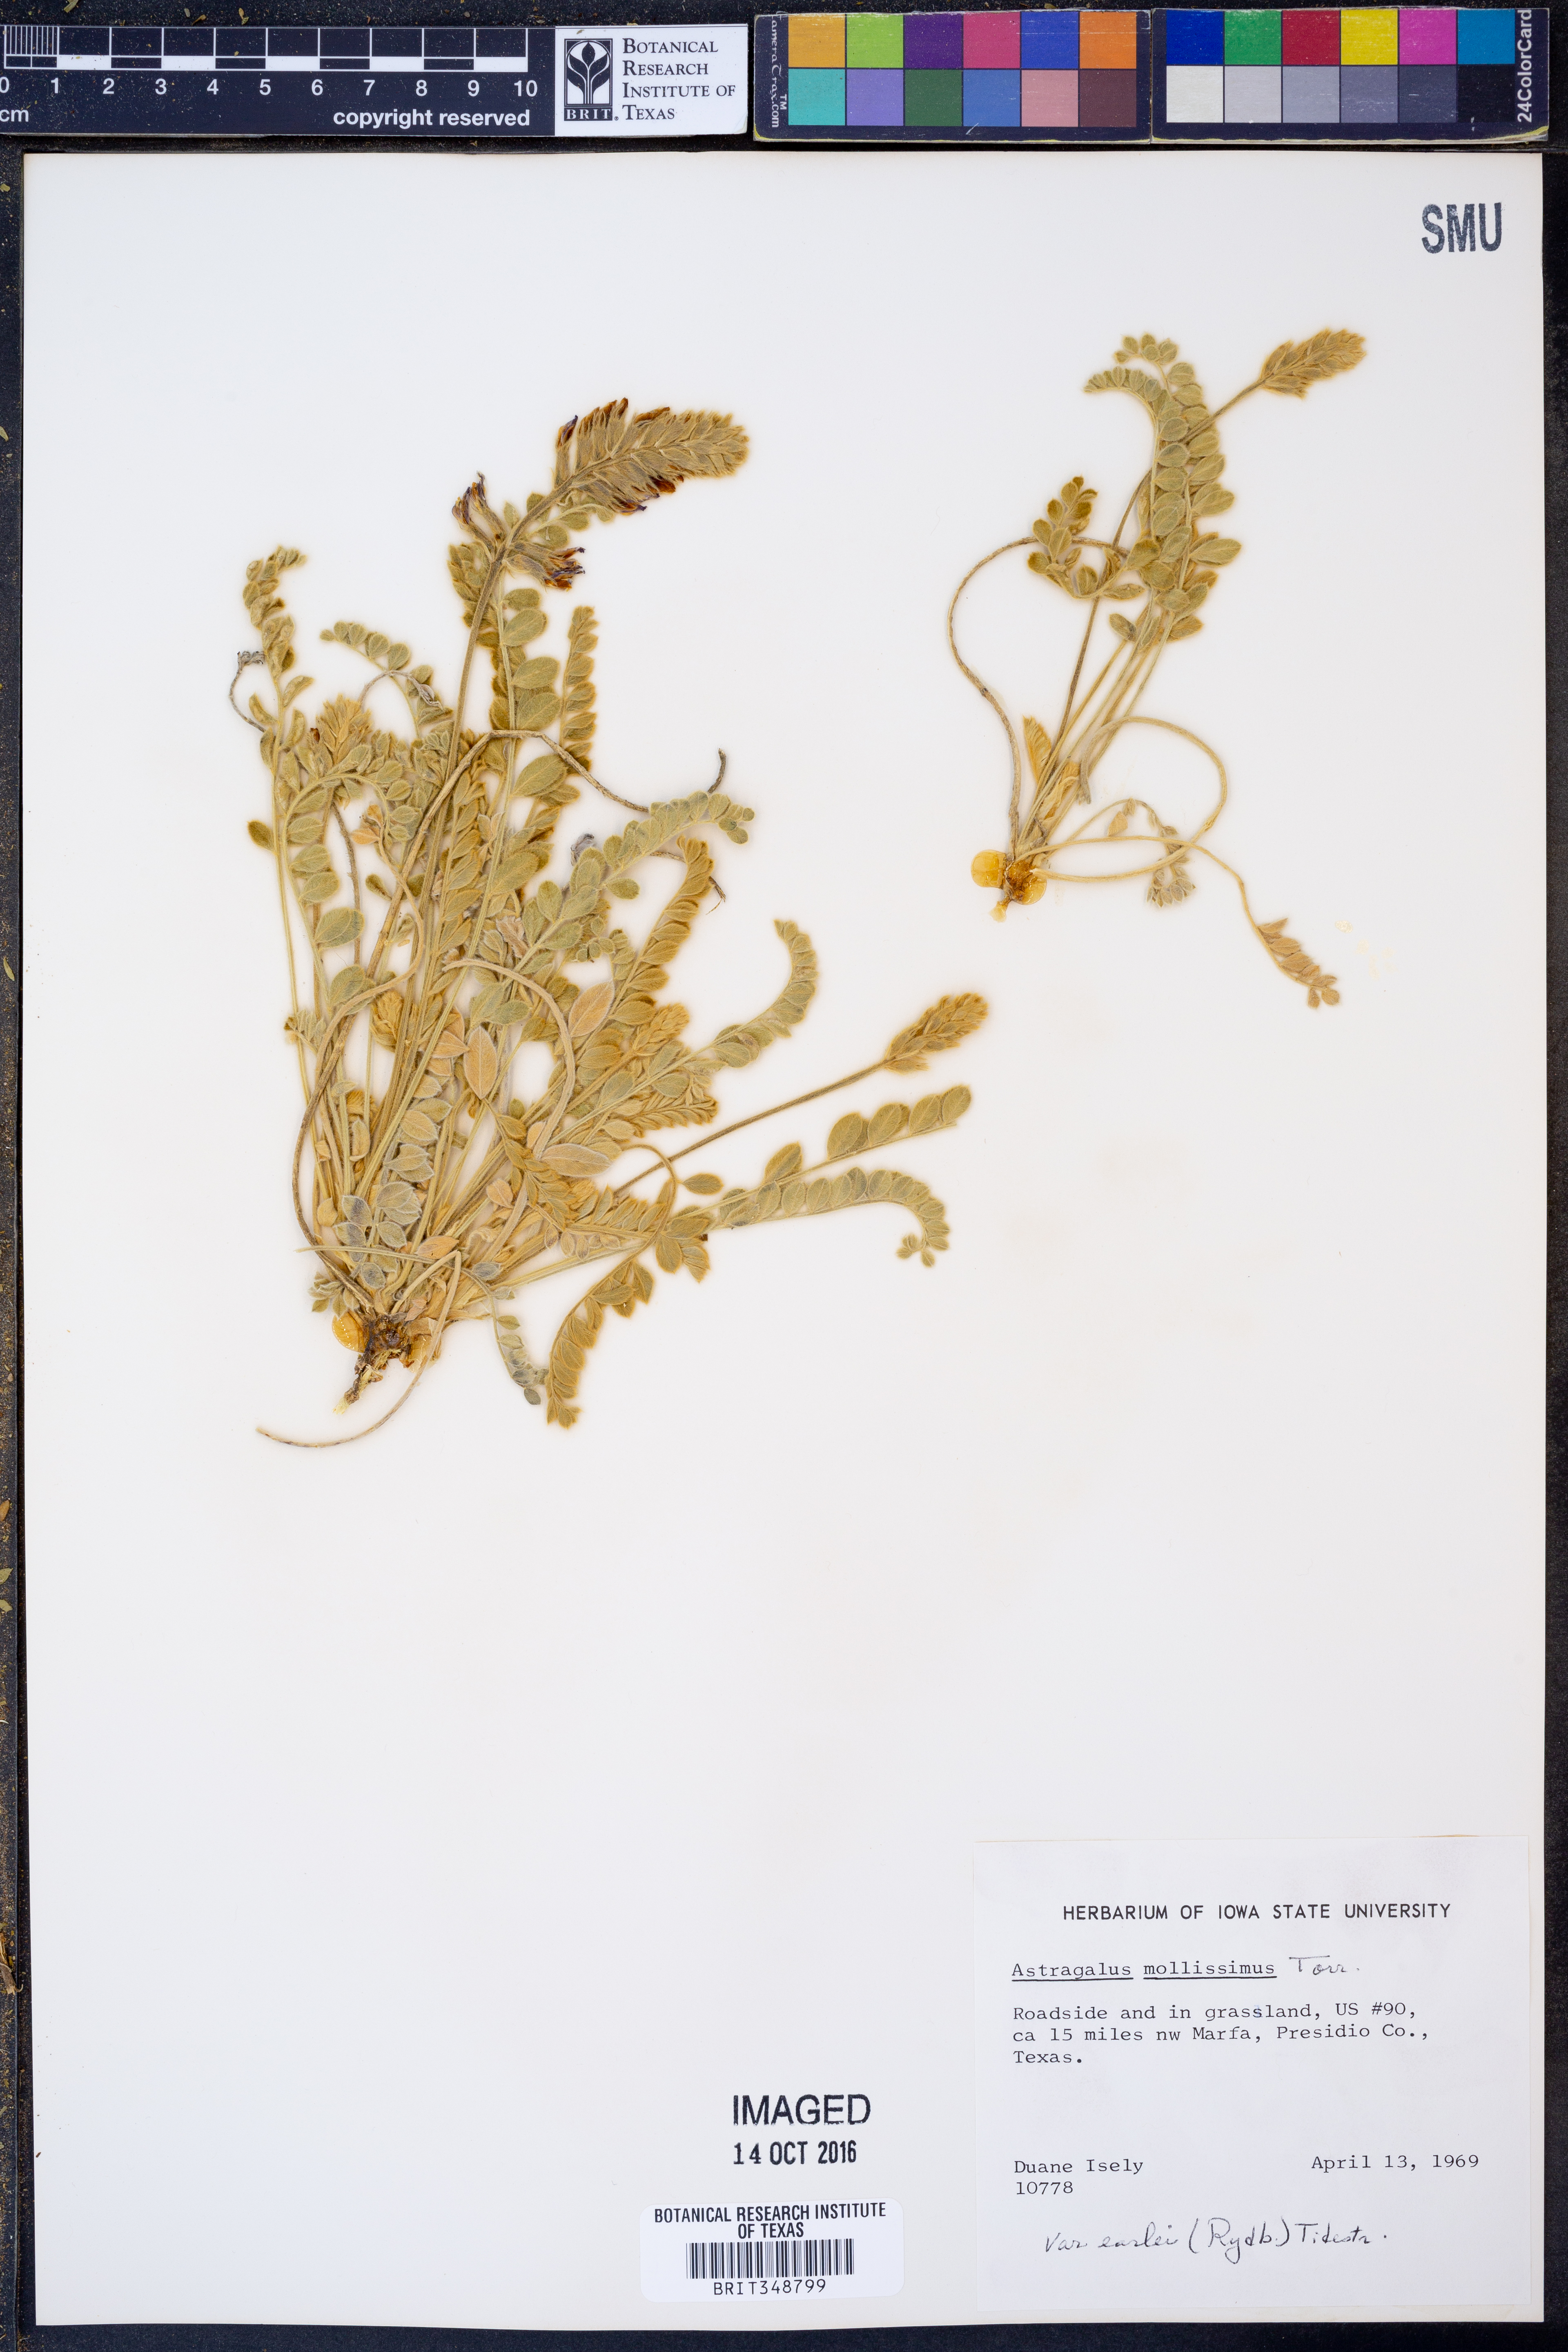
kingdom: Plantae
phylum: Tracheophyta
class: Magnoliopsida
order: Fabales
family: Fabaceae
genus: Astragalus
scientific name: Astragalus mollissimus
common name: Woolly locoweed
